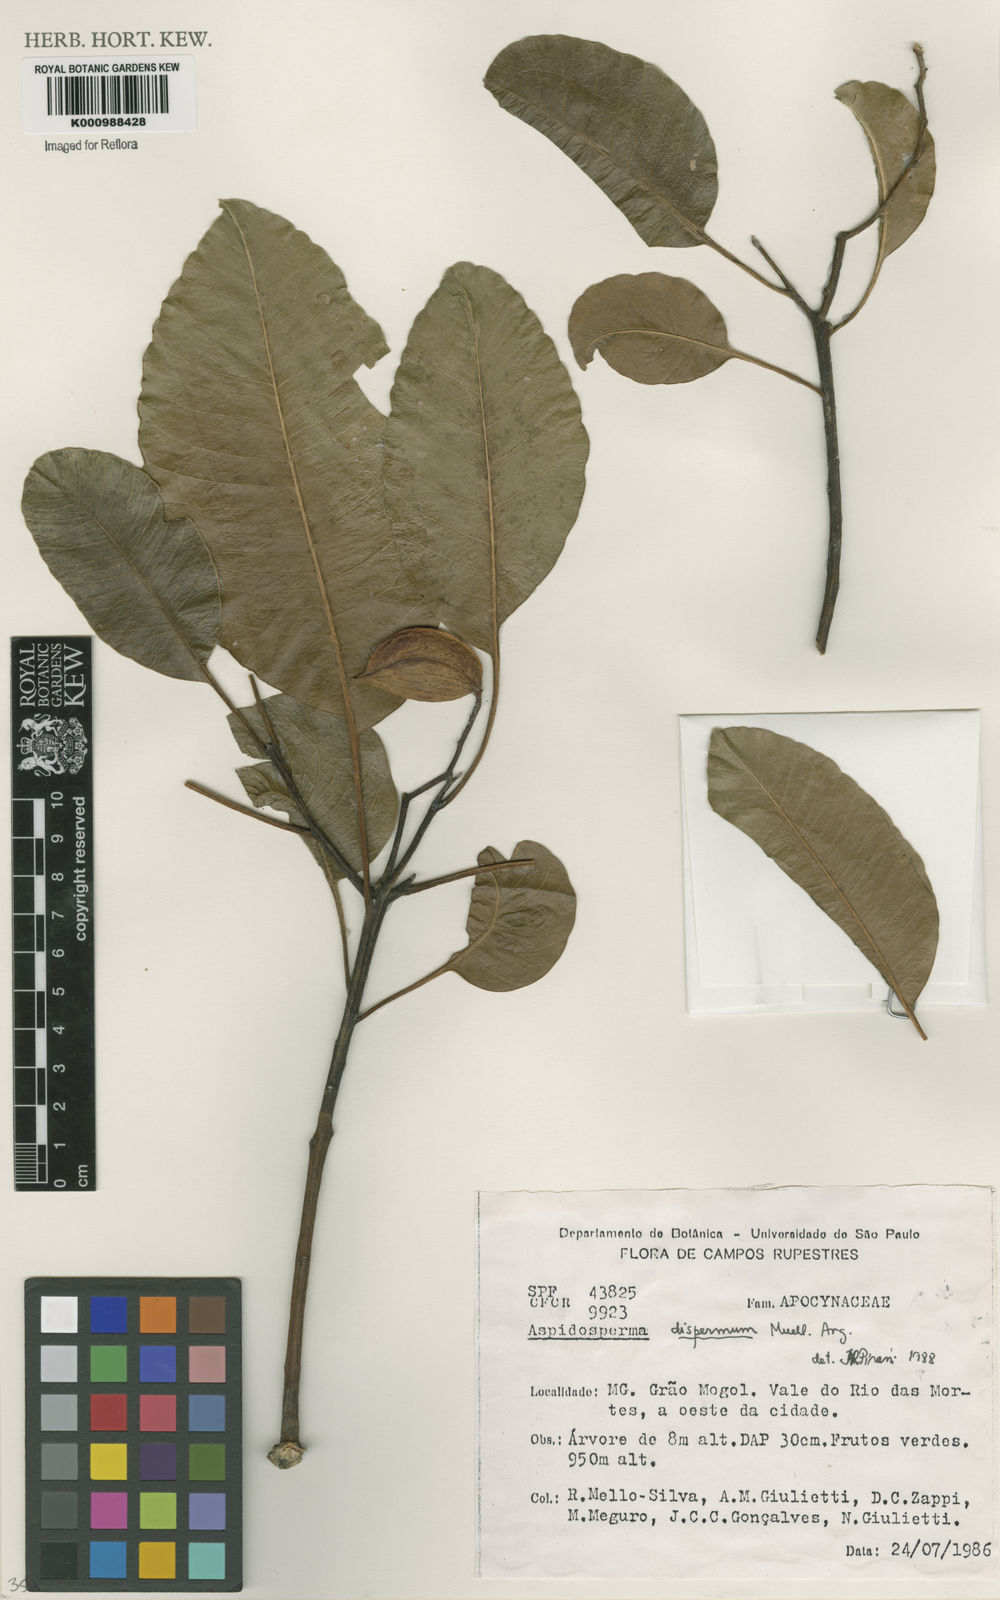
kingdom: Plantae
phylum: Tracheophyta
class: Magnoliopsida
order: Gentianales
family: Apocynaceae
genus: Aspidosperma
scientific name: Aspidosperma
